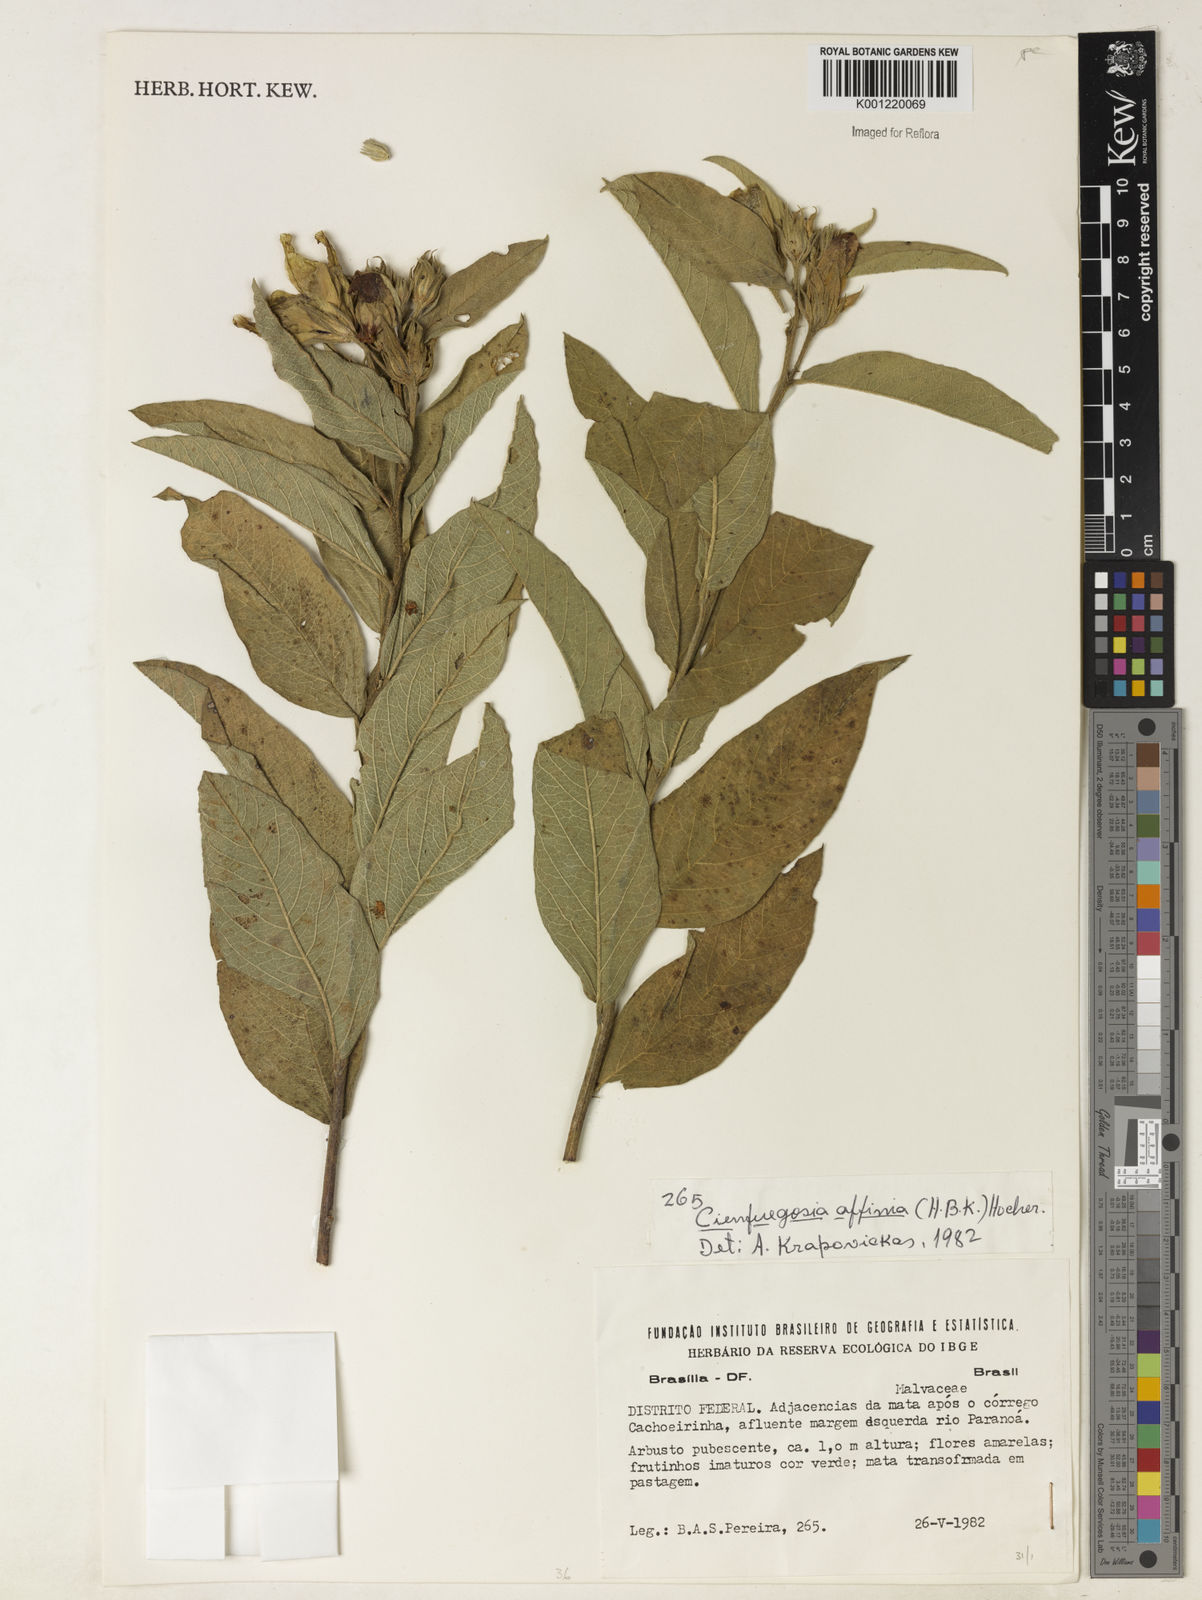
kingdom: Plantae
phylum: Tracheophyta
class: Magnoliopsida
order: Malvales
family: Malvaceae
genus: Cienfuegosia
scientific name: Cienfuegosia affinis
